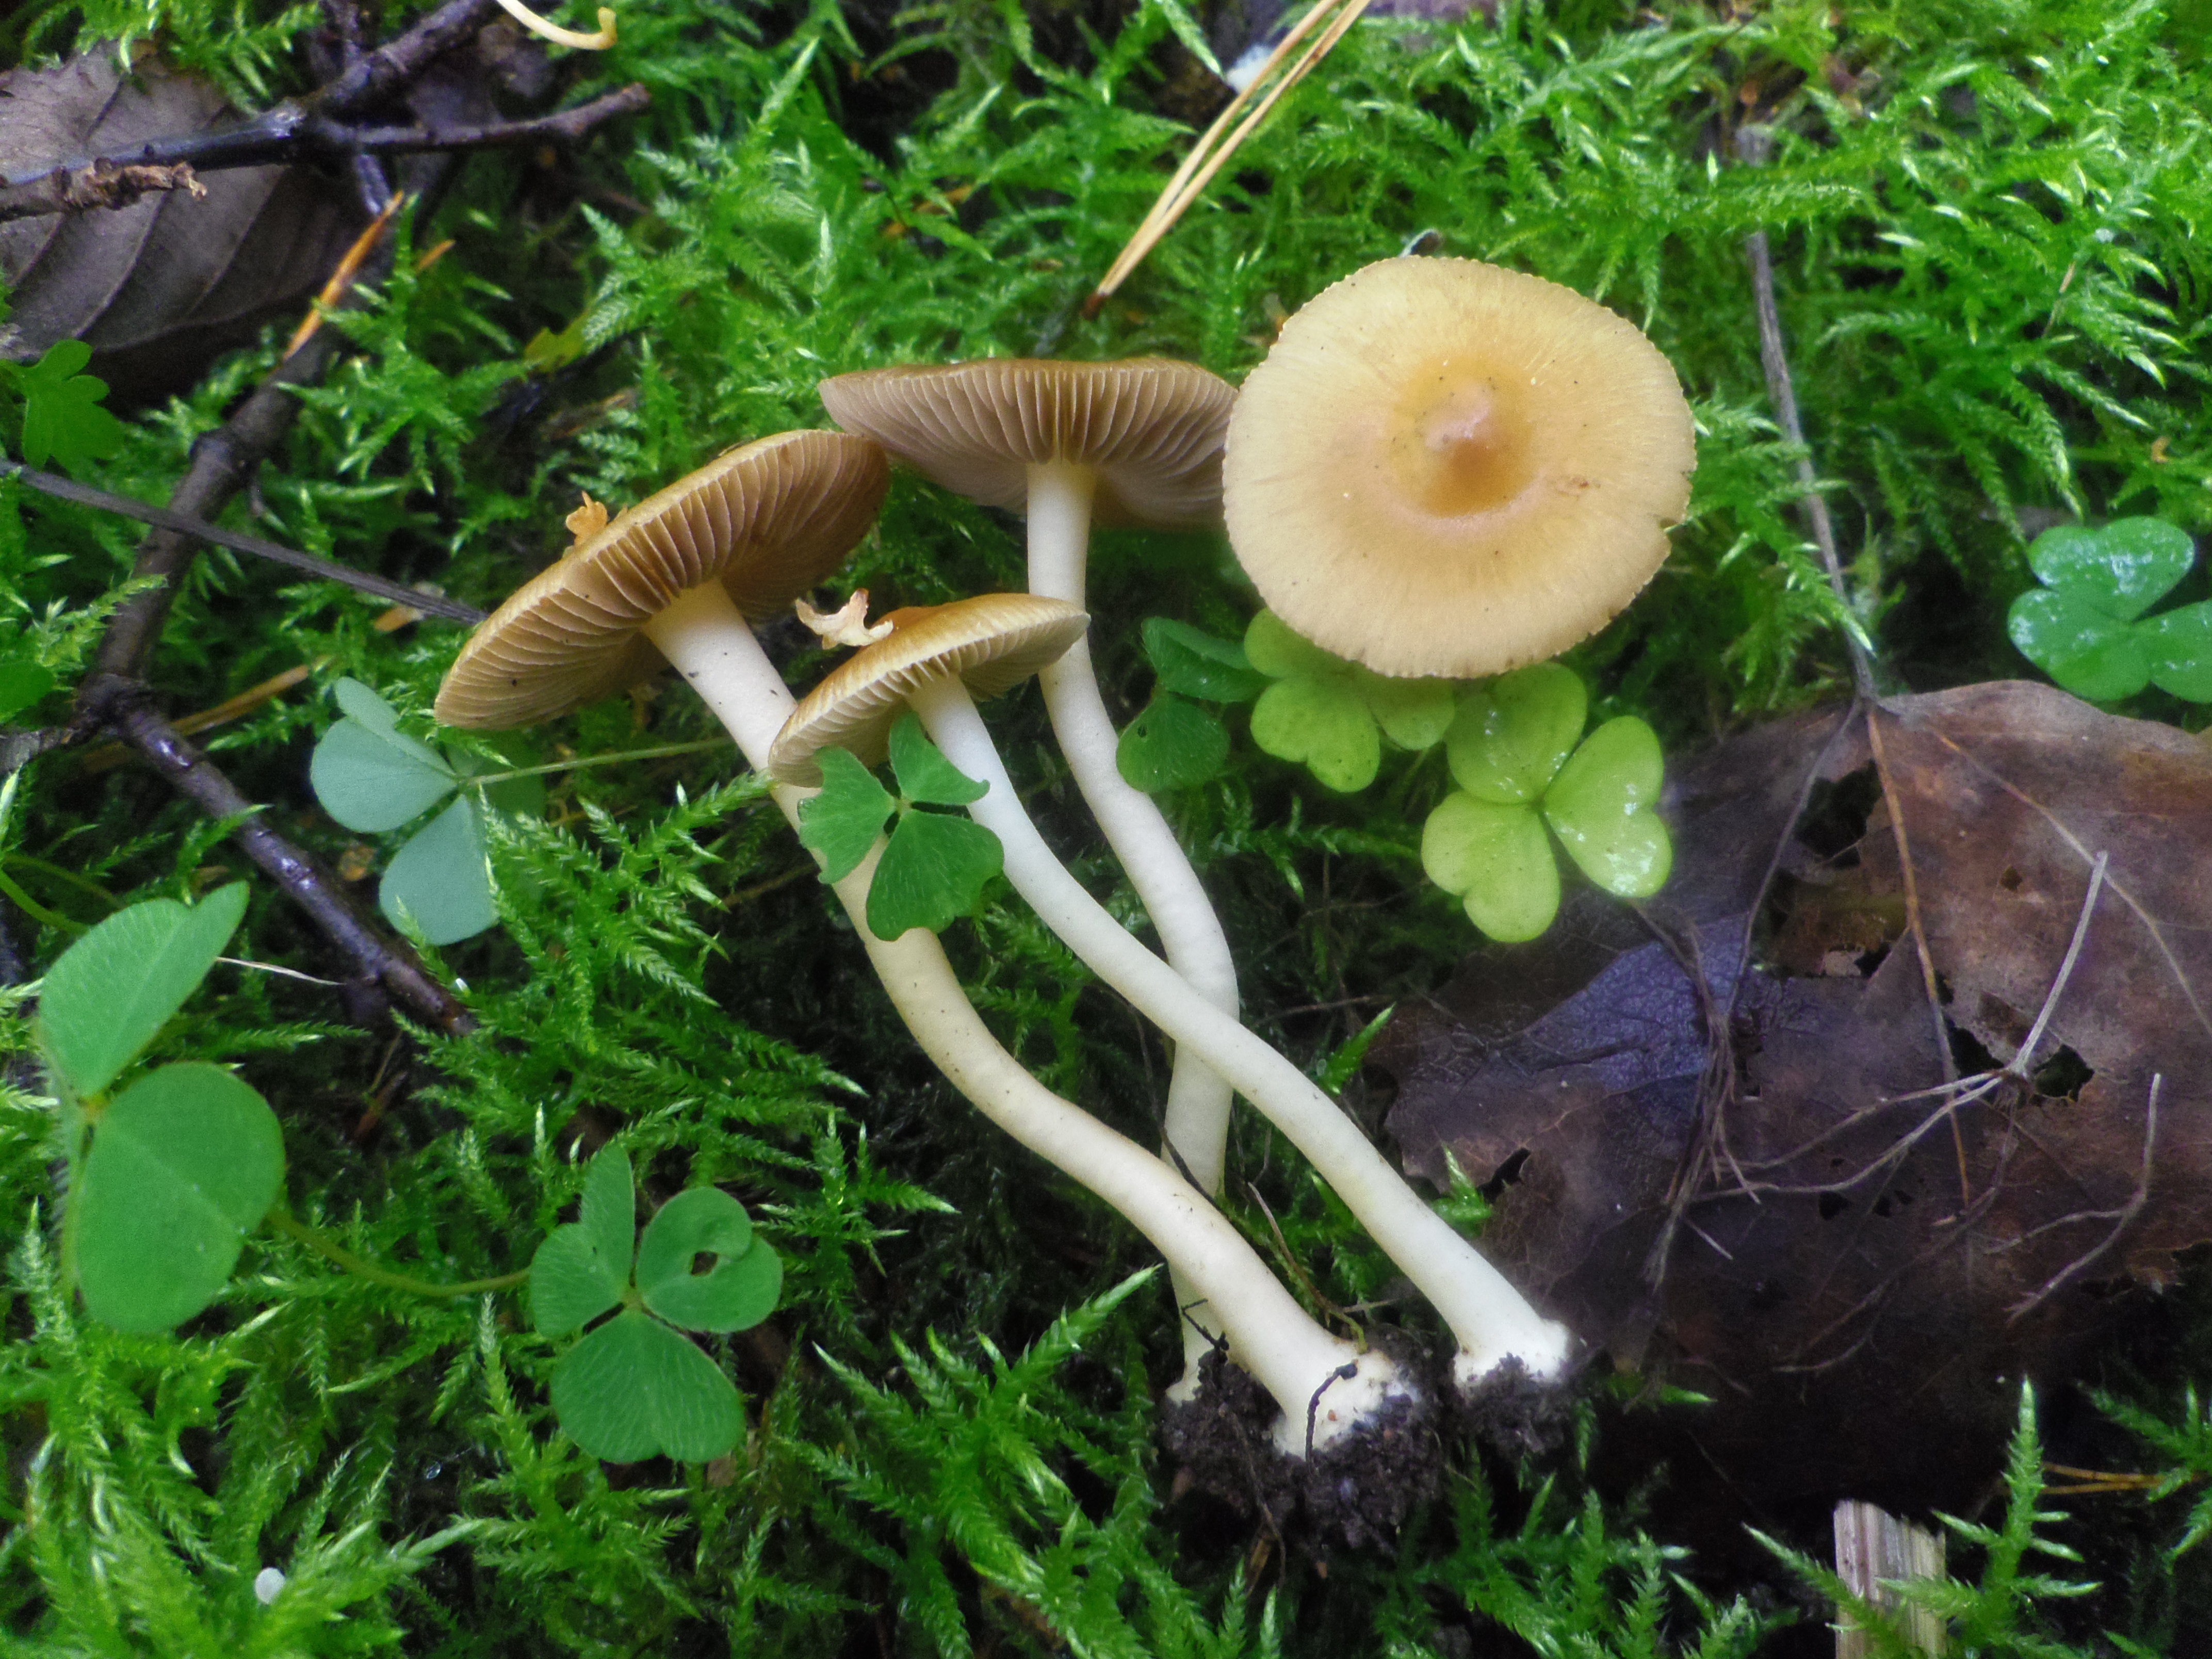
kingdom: Fungi
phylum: Basidiomycota
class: Agaricomycetes
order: Agaricales
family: Inocybaceae
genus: Inocybe
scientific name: Inocybe
